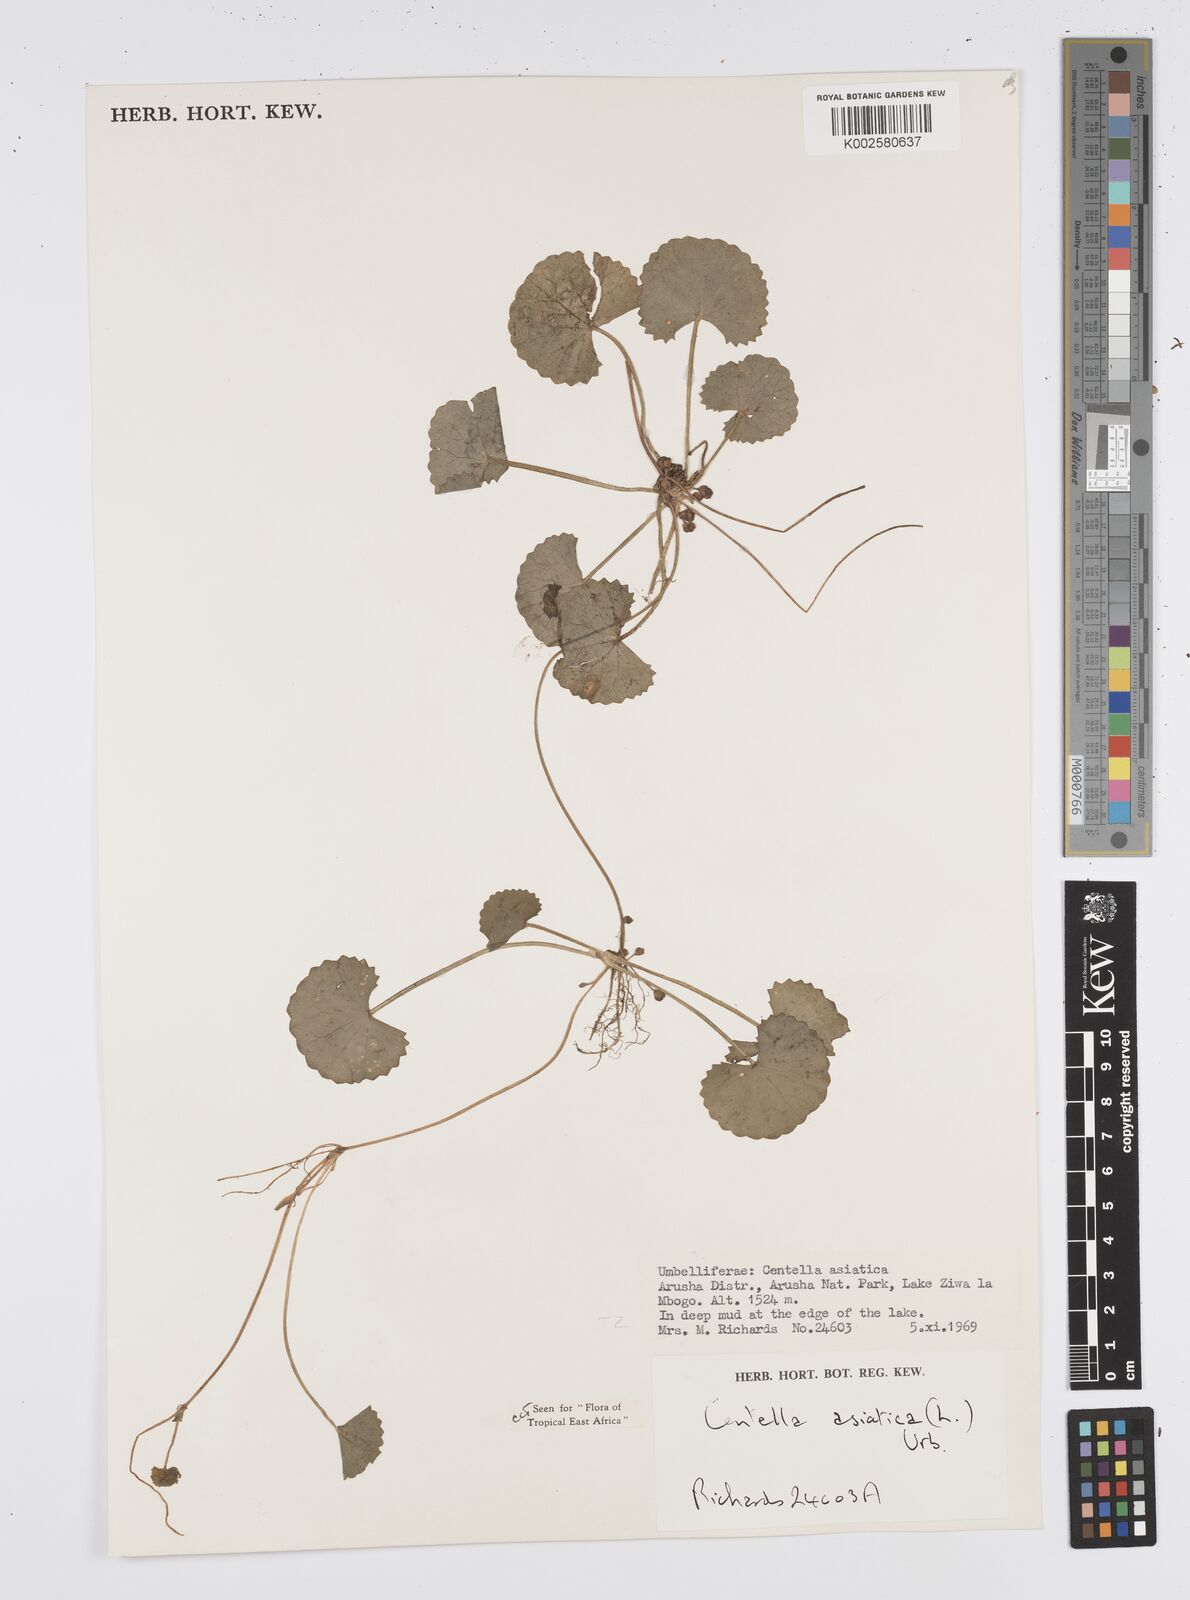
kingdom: Plantae
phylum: Tracheophyta
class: Magnoliopsida
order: Apiales
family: Apiaceae
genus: Centella
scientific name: Centella asiatica
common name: Spadeleaf
